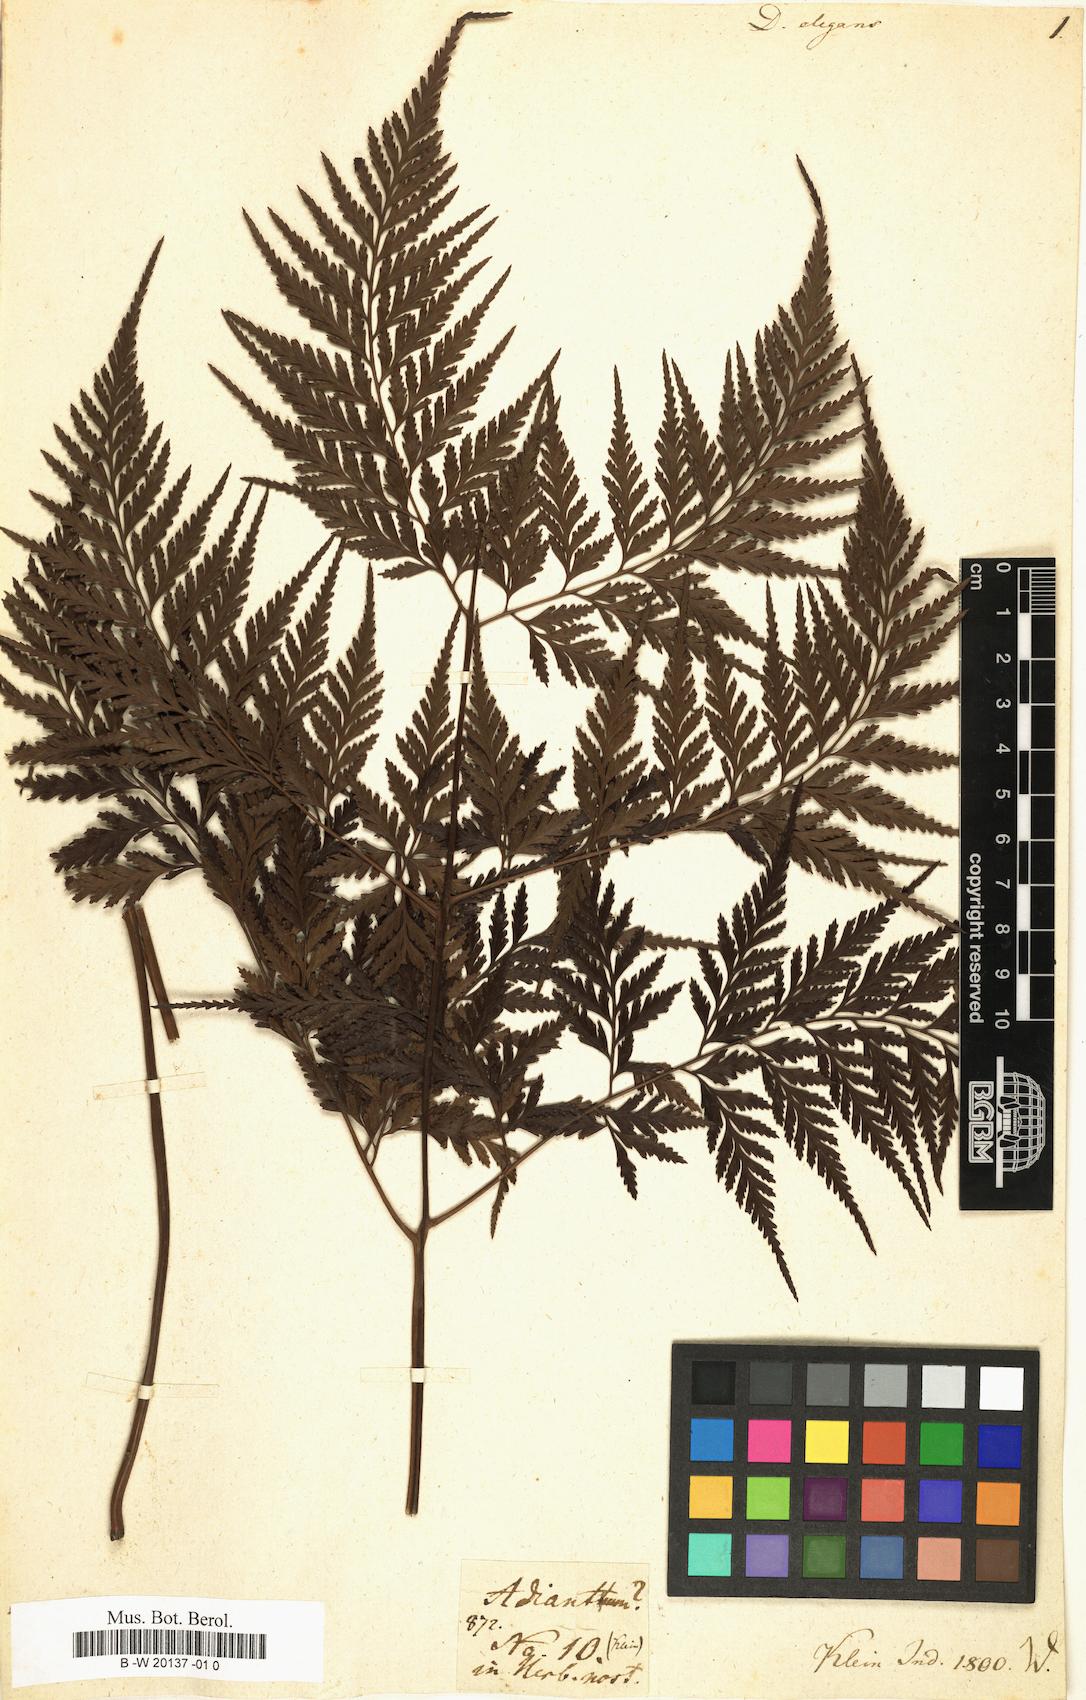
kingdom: Plantae
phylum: Tracheophyta
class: Polypodiopsida
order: Polypodiales
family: Davalliaceae
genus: Davallia
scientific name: Davallia
